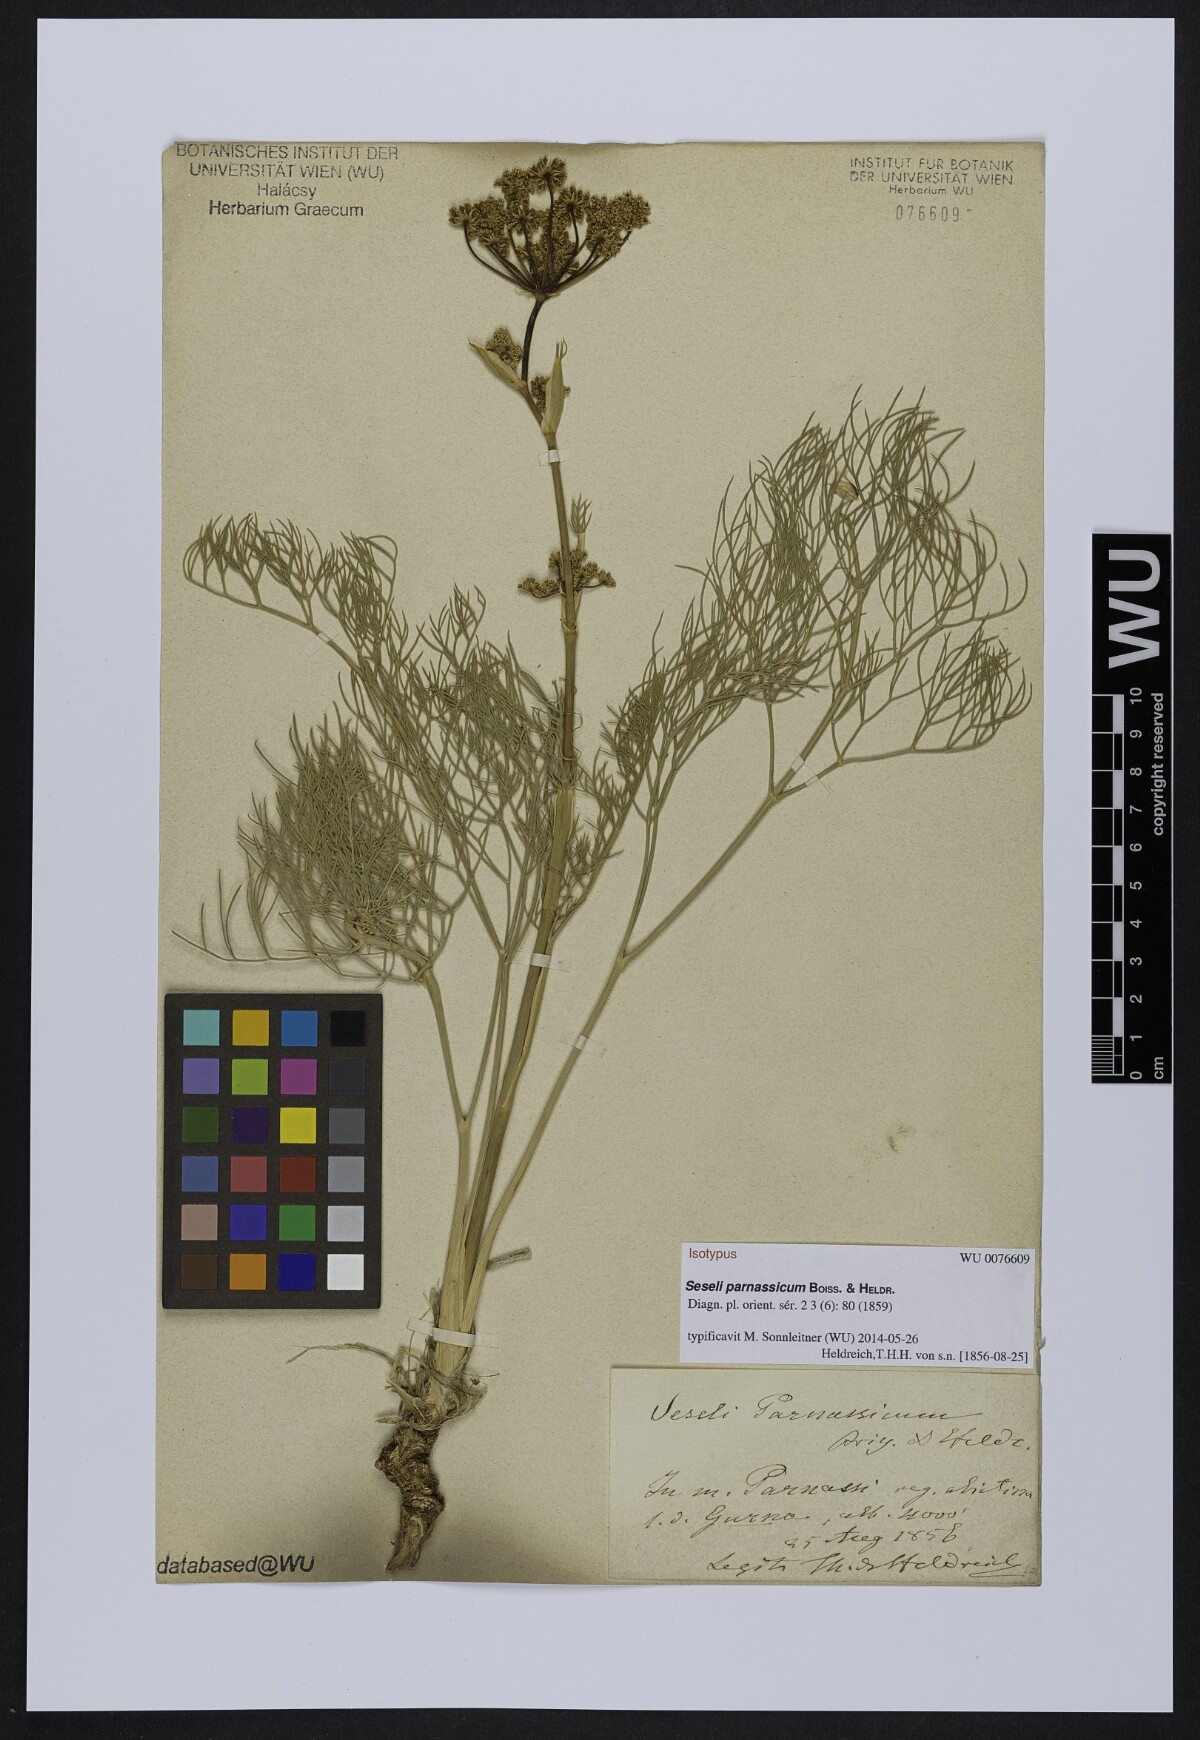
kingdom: Plantae
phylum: Tracheophyta
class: Magnoliopsida
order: Apiales
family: Apiaceae
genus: Seseli
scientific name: Seseli parnassicum
